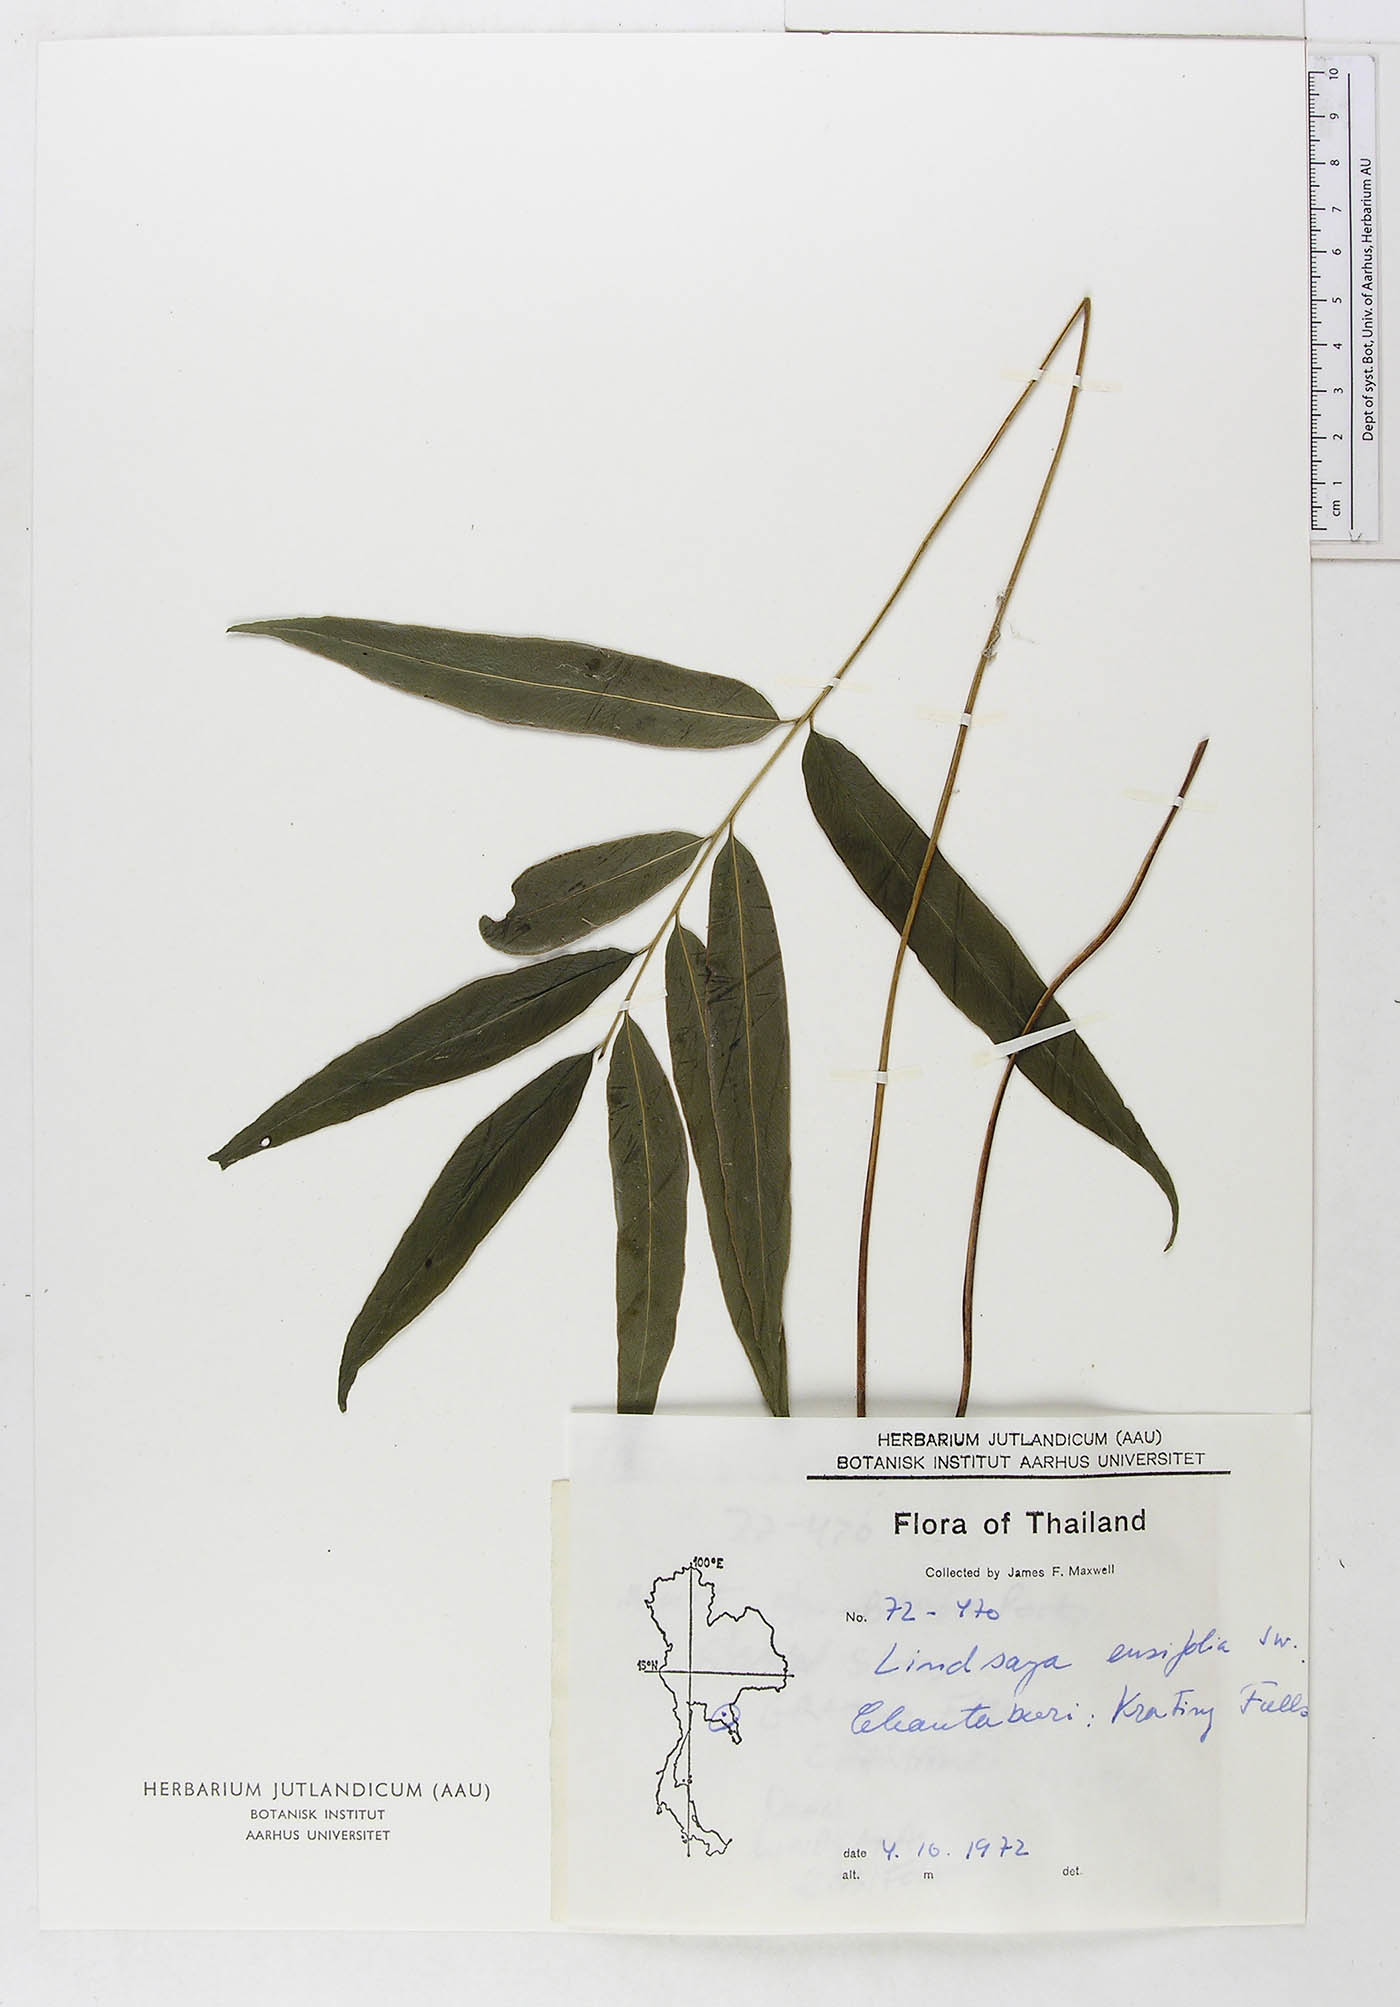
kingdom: Plantae
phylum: Tracheophyta
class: Polypodiopsida
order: Polypodiales
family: Lindsaeaceae
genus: Lindsaea
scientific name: Lindsaea ensifolia
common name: Graceful necklace fern
